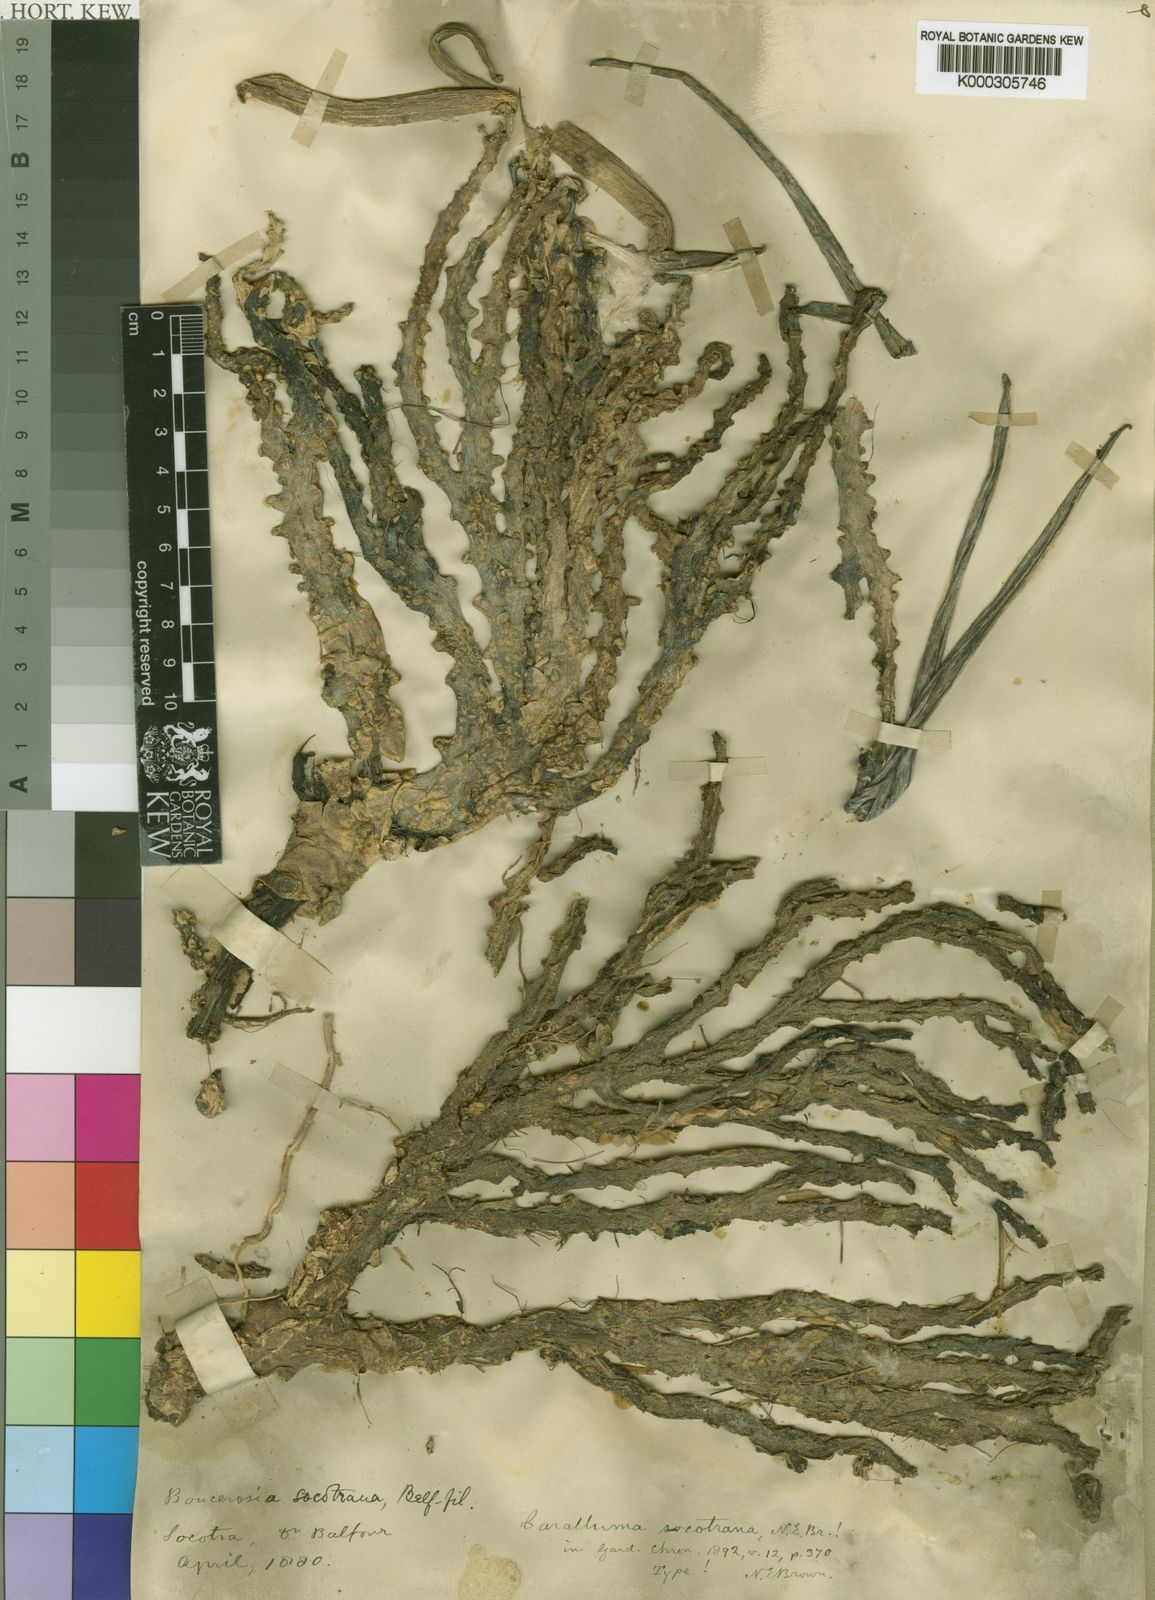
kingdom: Plantae
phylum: Tracheophyta
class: Magnoliopsida
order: Gentianales
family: Apocynaceae
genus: Ceropegia
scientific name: Ceropegia socotrana
